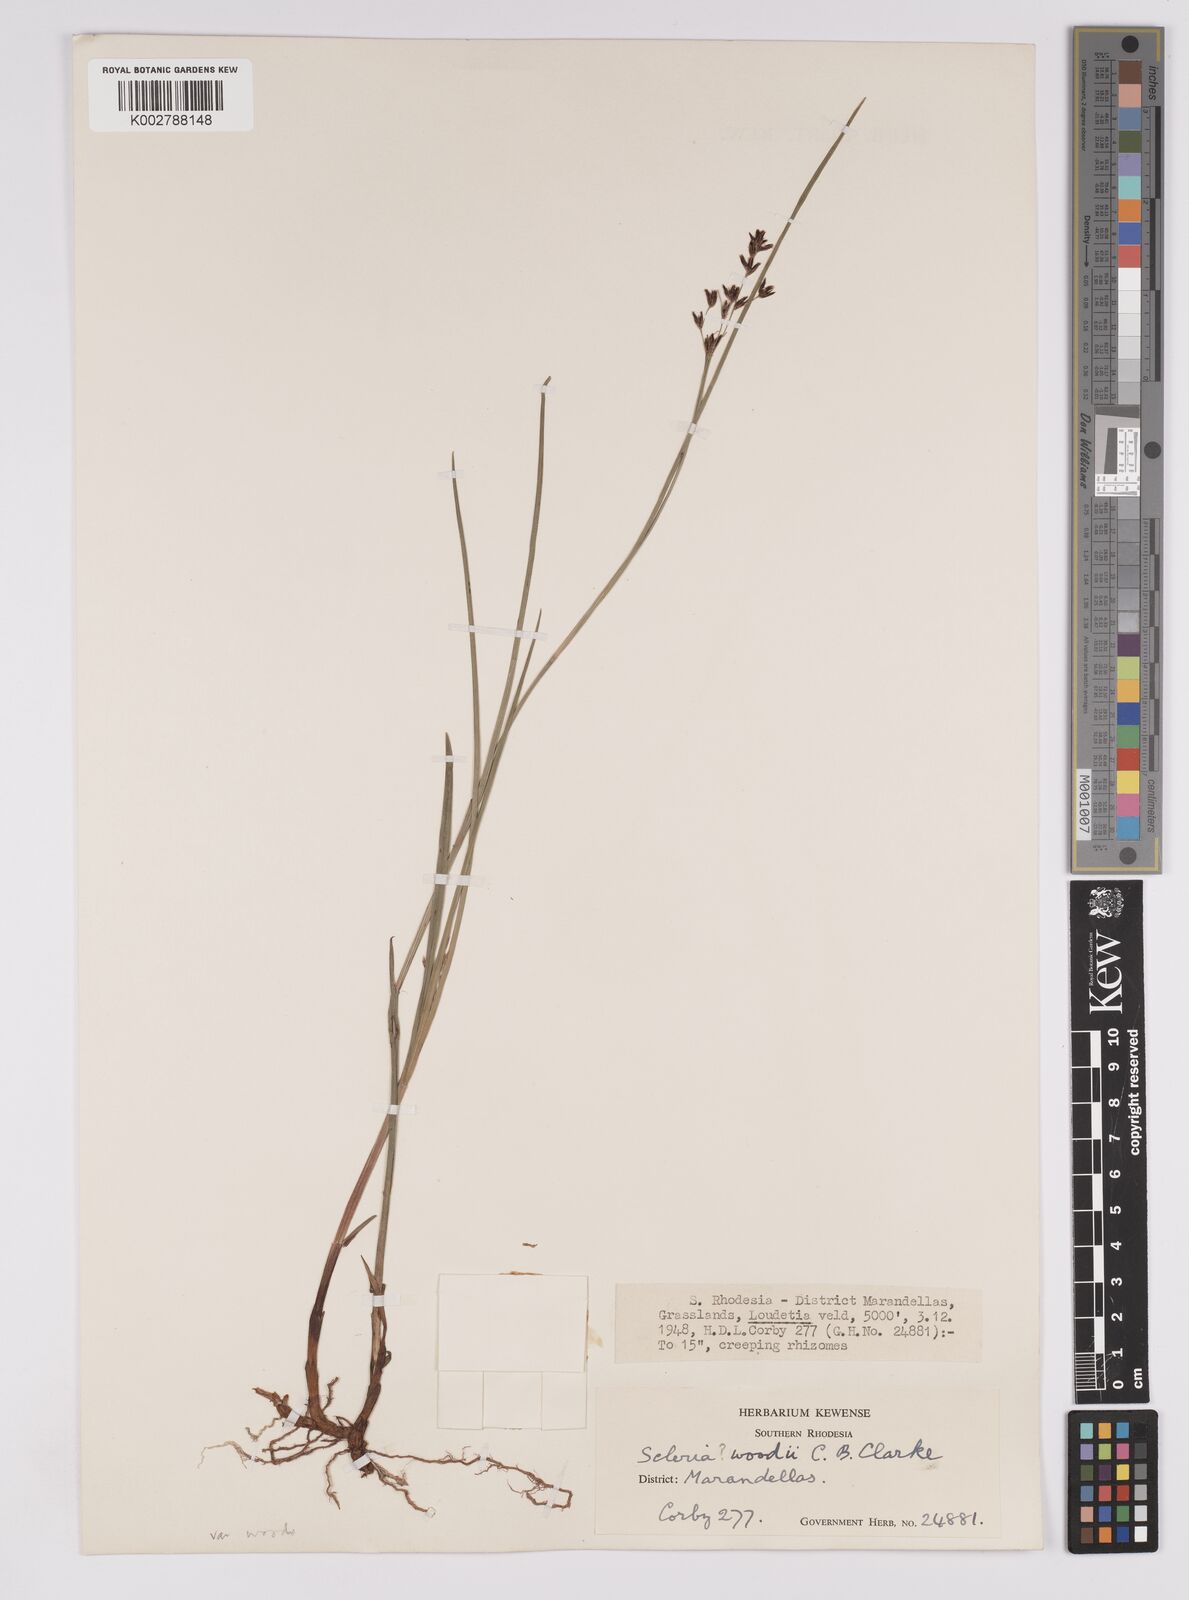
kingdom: Plantae
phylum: Tracheophyta
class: Liliopsida
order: Poales
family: Cyperaceae
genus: Scleria
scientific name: Scleria woodii
